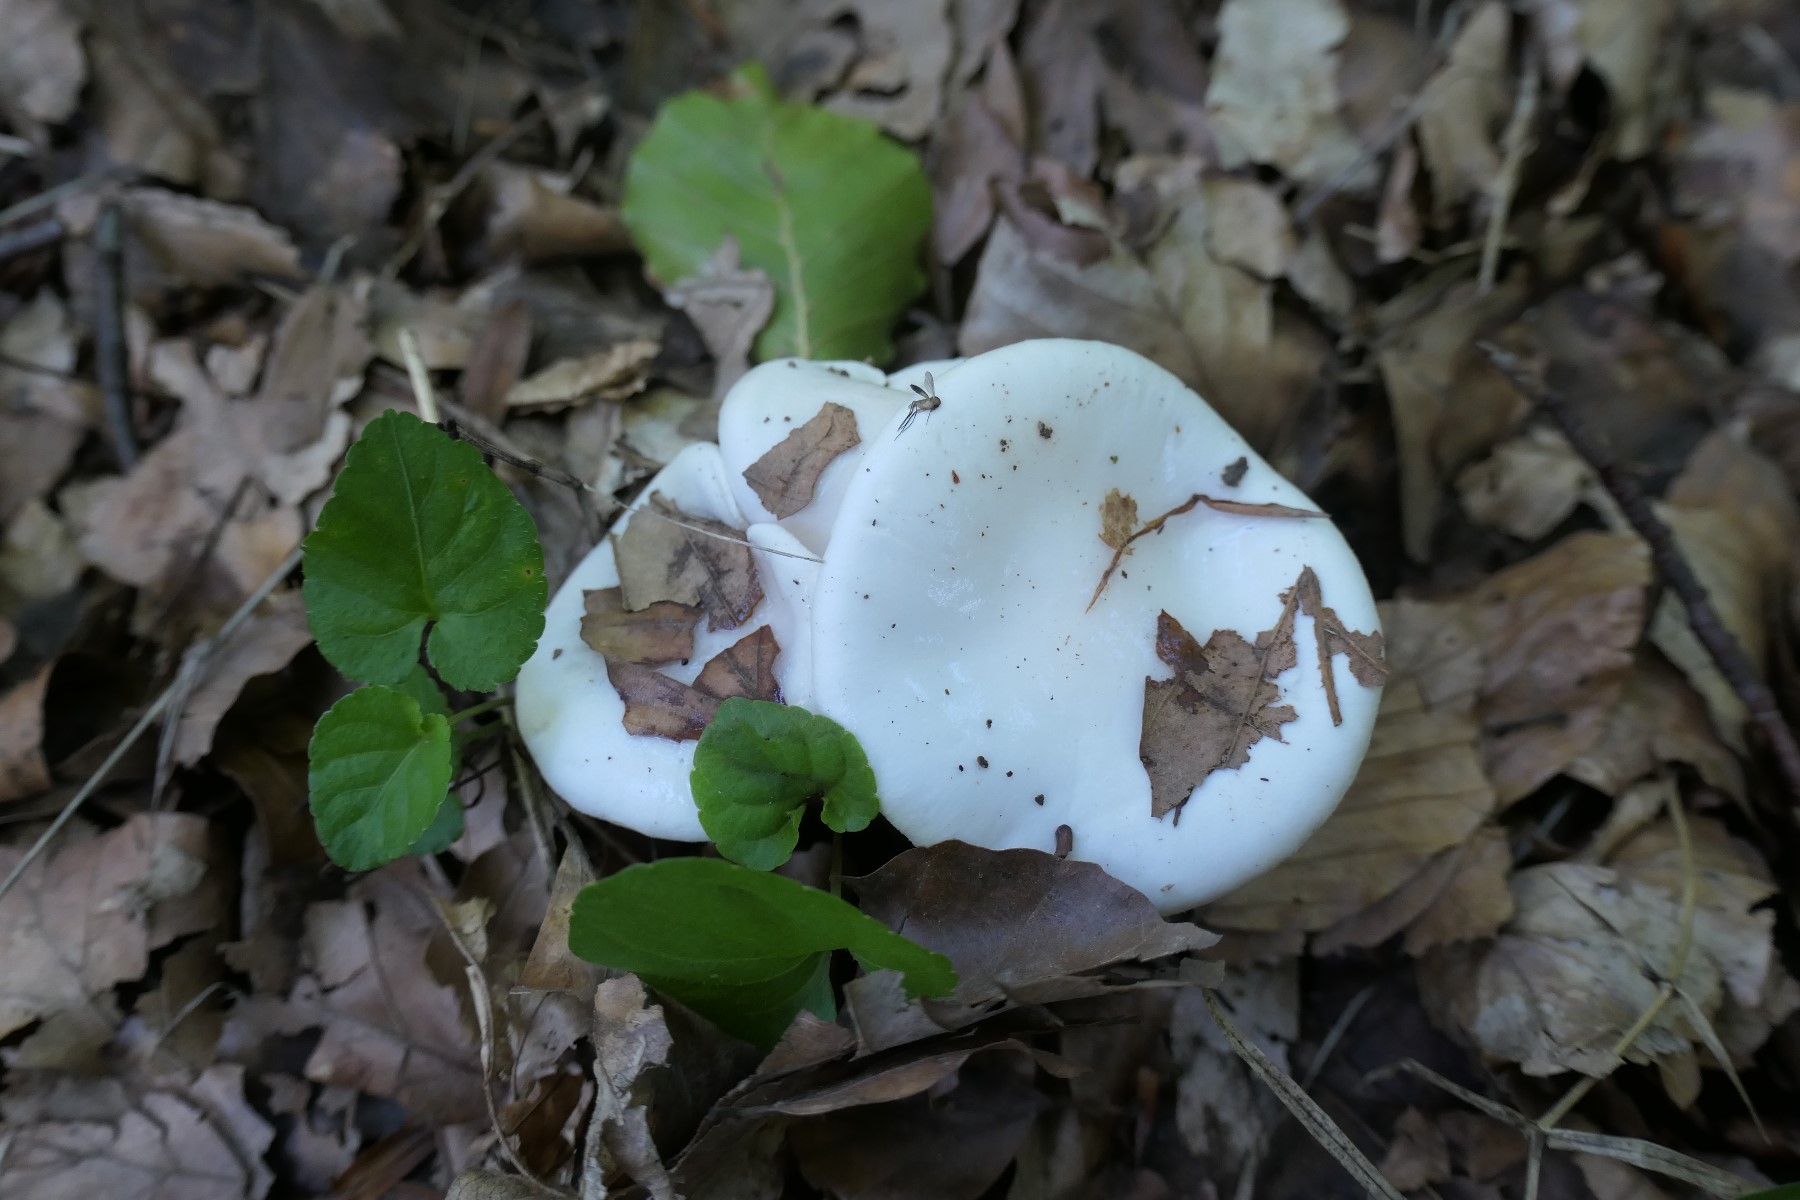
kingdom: Fungi
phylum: Basidiomycota
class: Agaricomycetes
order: Agaricales
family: Hygrophoraceae
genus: Hygrophorus
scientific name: Hygrophorus discoxanthus
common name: ildelugtende sneglehat
